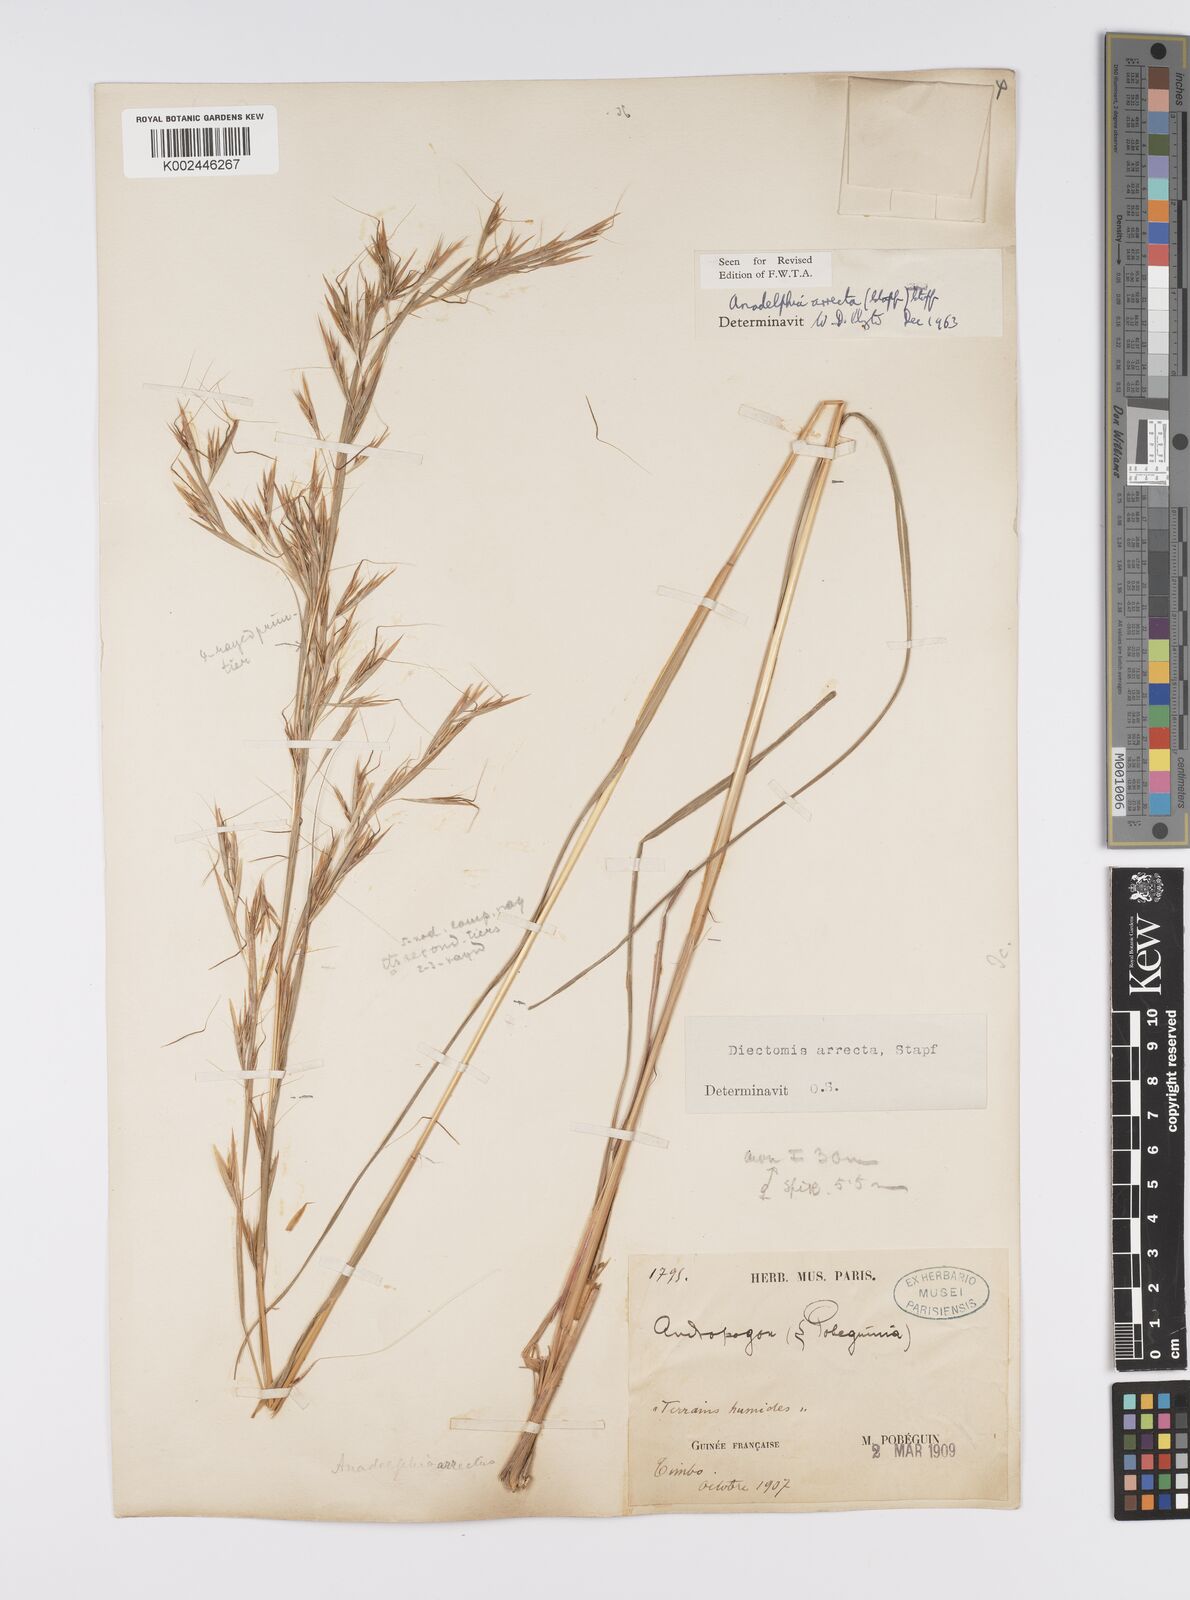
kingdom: Plantae
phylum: Tracheophyta
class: Liliopsida
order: Poales
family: Poaceae
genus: Anadelphia
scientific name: Anadelphia afzeliana
